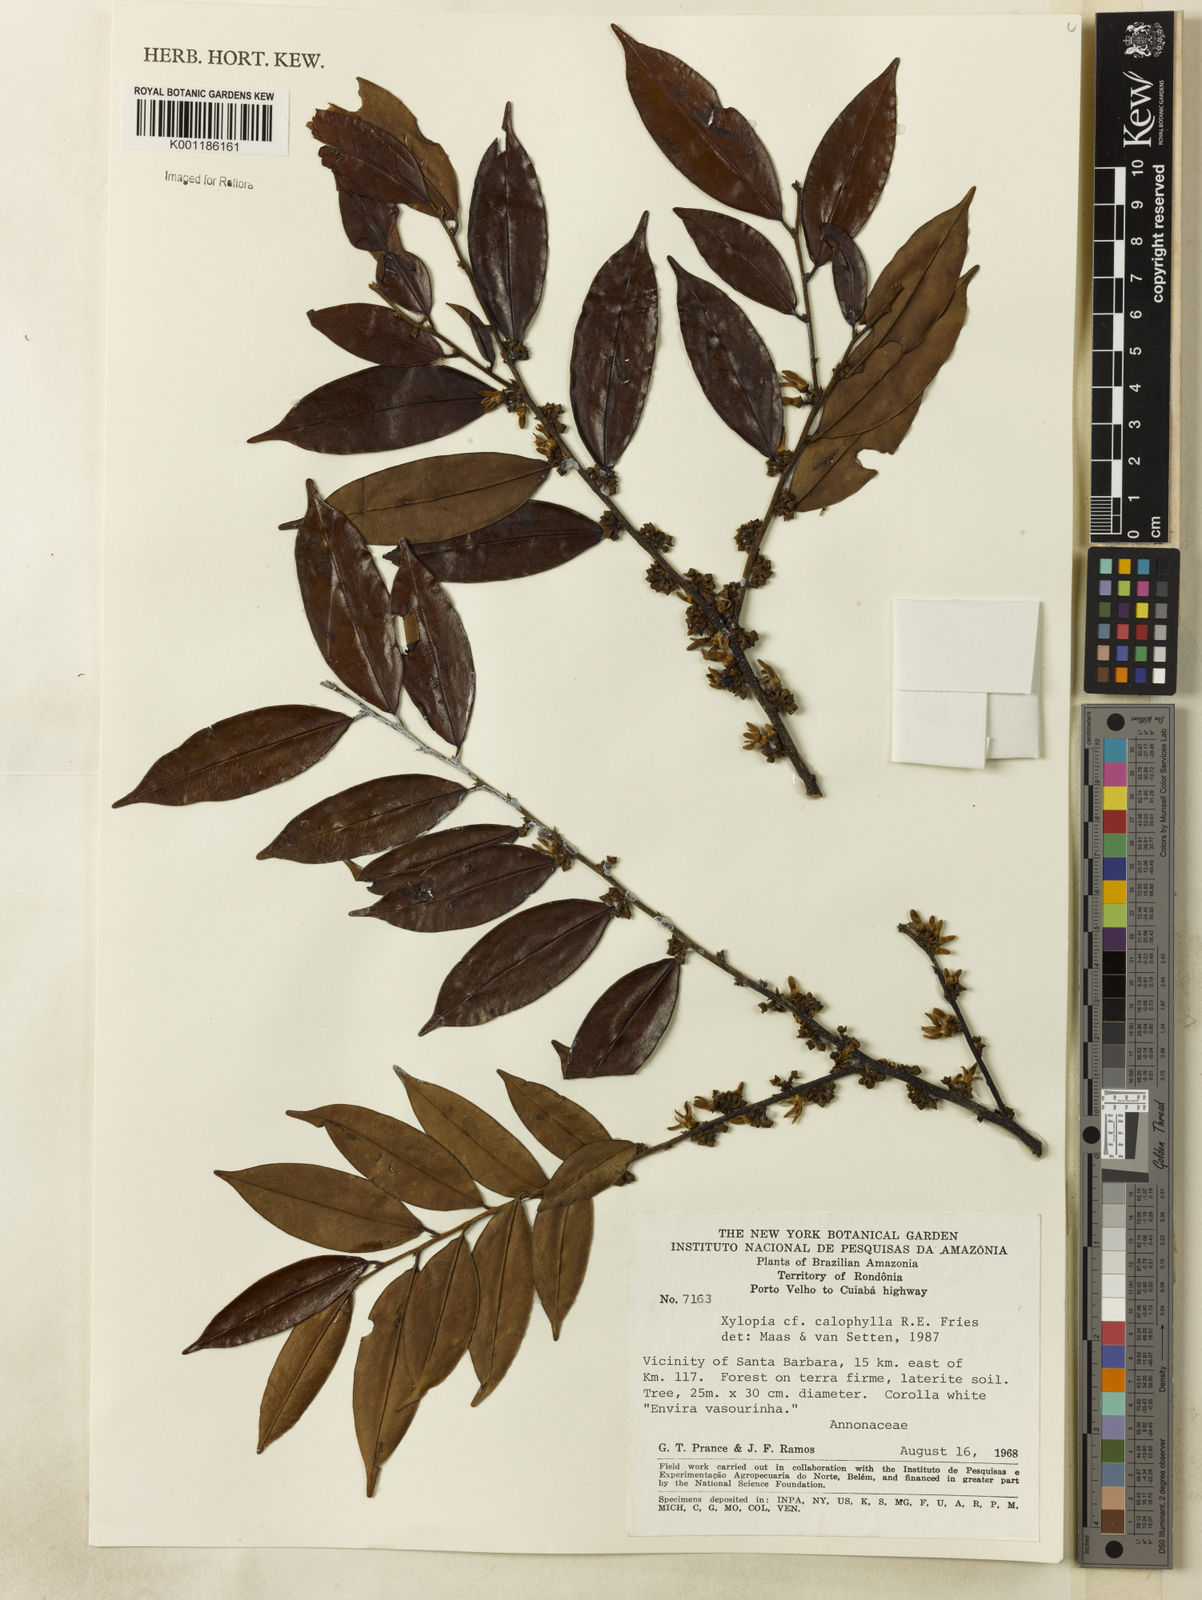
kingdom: Plantae
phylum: Tracheophyta
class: Magnoliopsida
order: Magnoliales
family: Annonaceae
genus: Xylopia
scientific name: Xylopia calophylla
